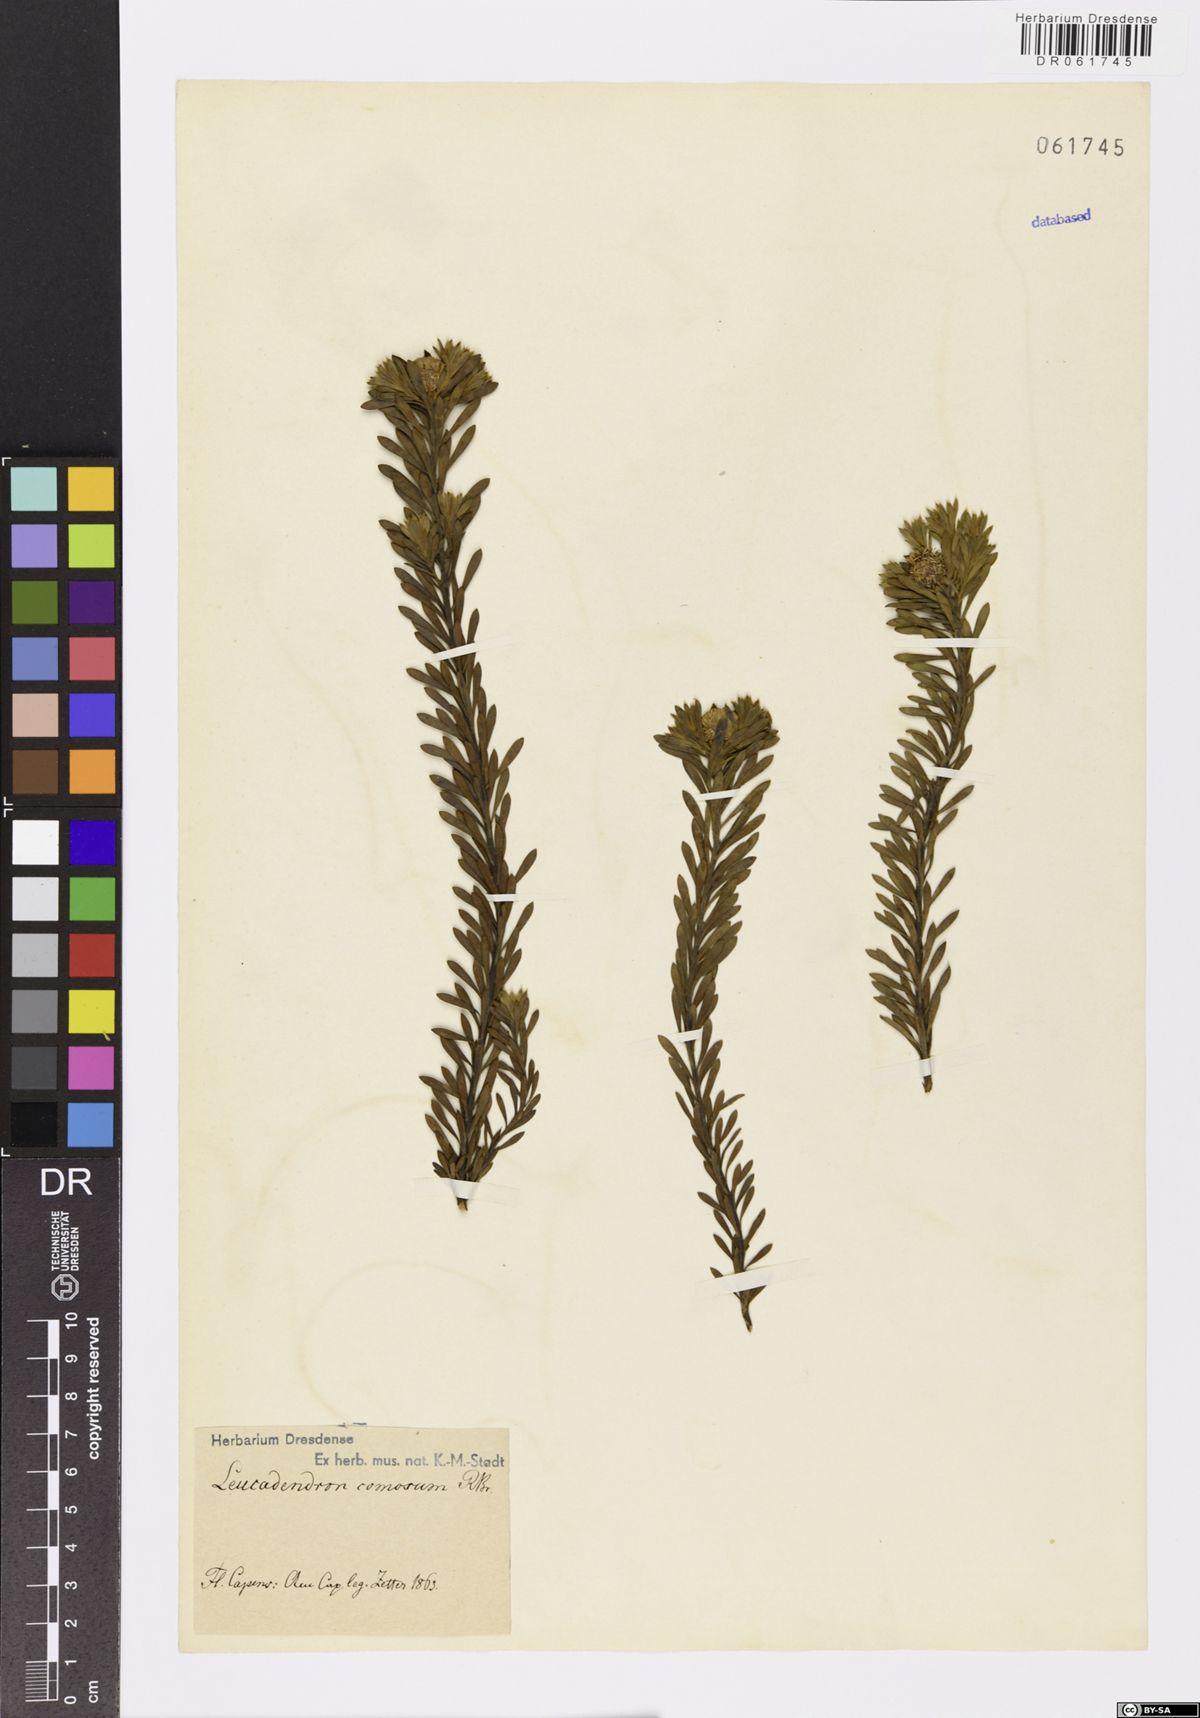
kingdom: Plantae
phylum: Tracheophyta
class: Magnoliopsida
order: Proteales
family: Proteaceae
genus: Leucadendron
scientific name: Leucadendron comosum
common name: Ridge-cone conebush
